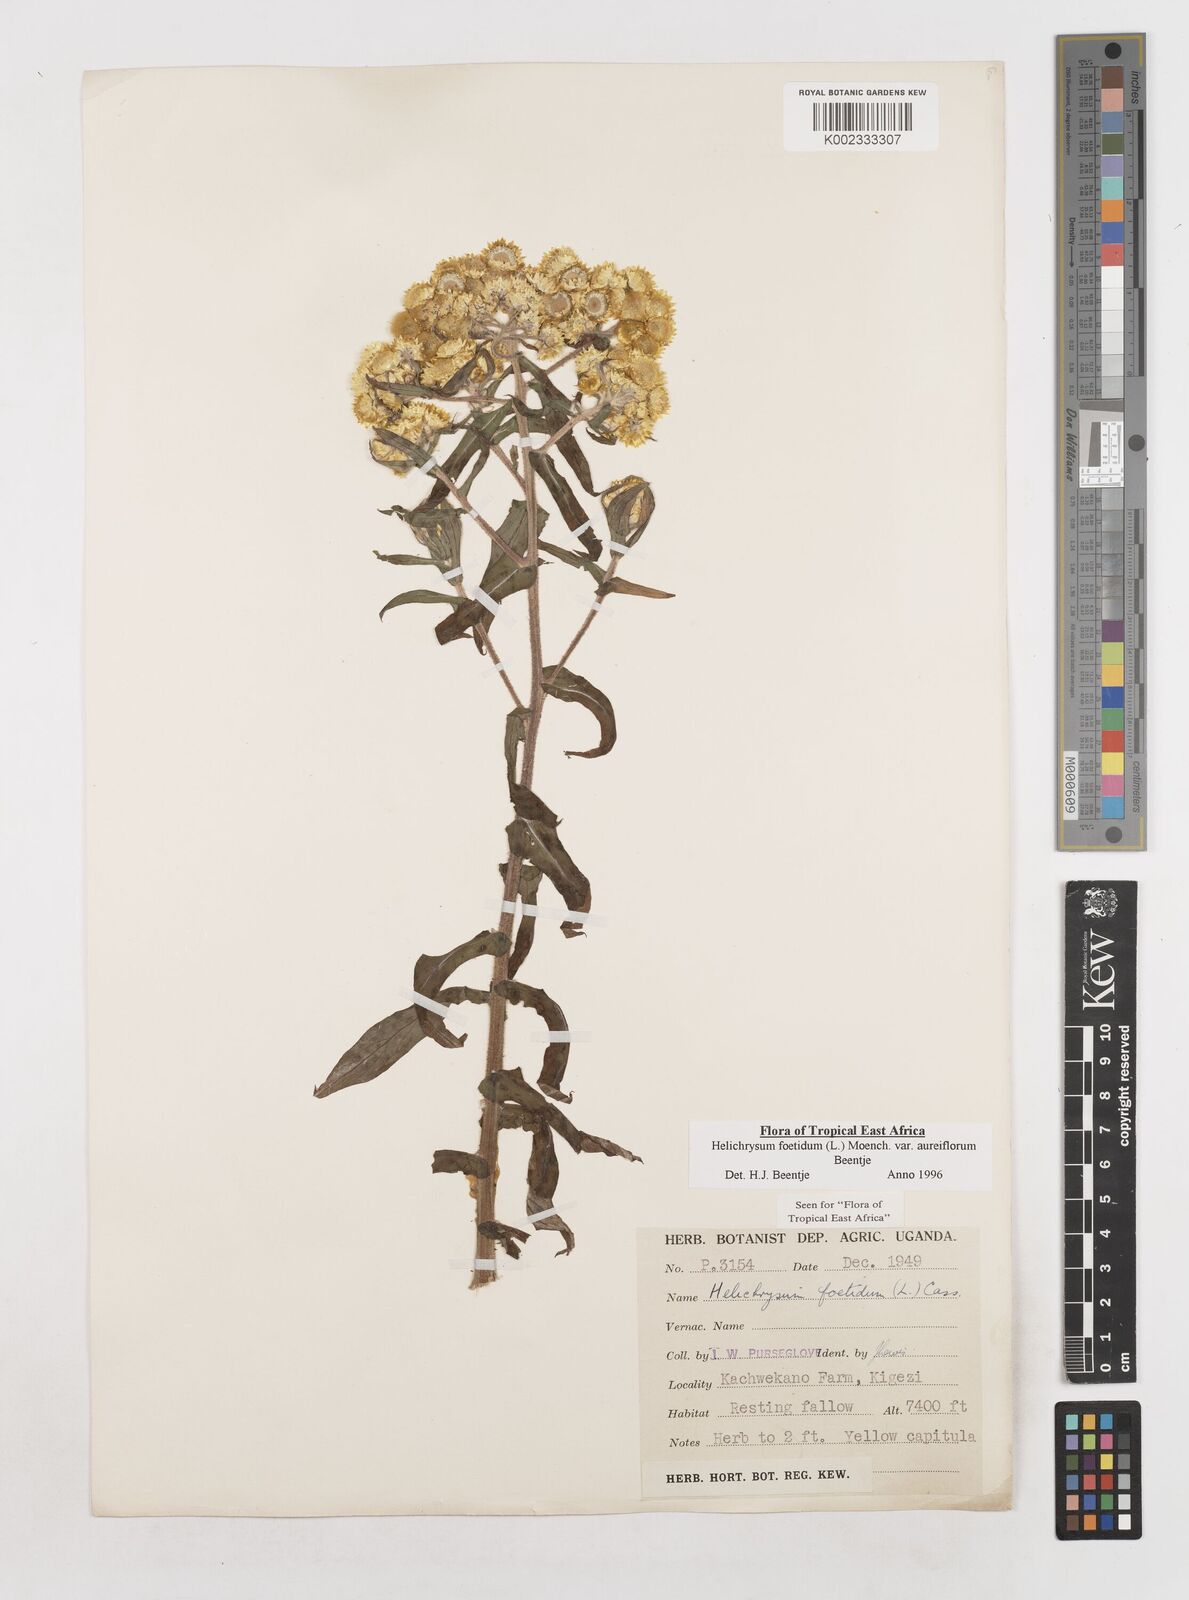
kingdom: Plantae
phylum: Tracheophyta
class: Magnoliopsida
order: Asterales
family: Asteraceae
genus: Helichrysum
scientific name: Helichrysum foetidum
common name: Stinking everlasting
